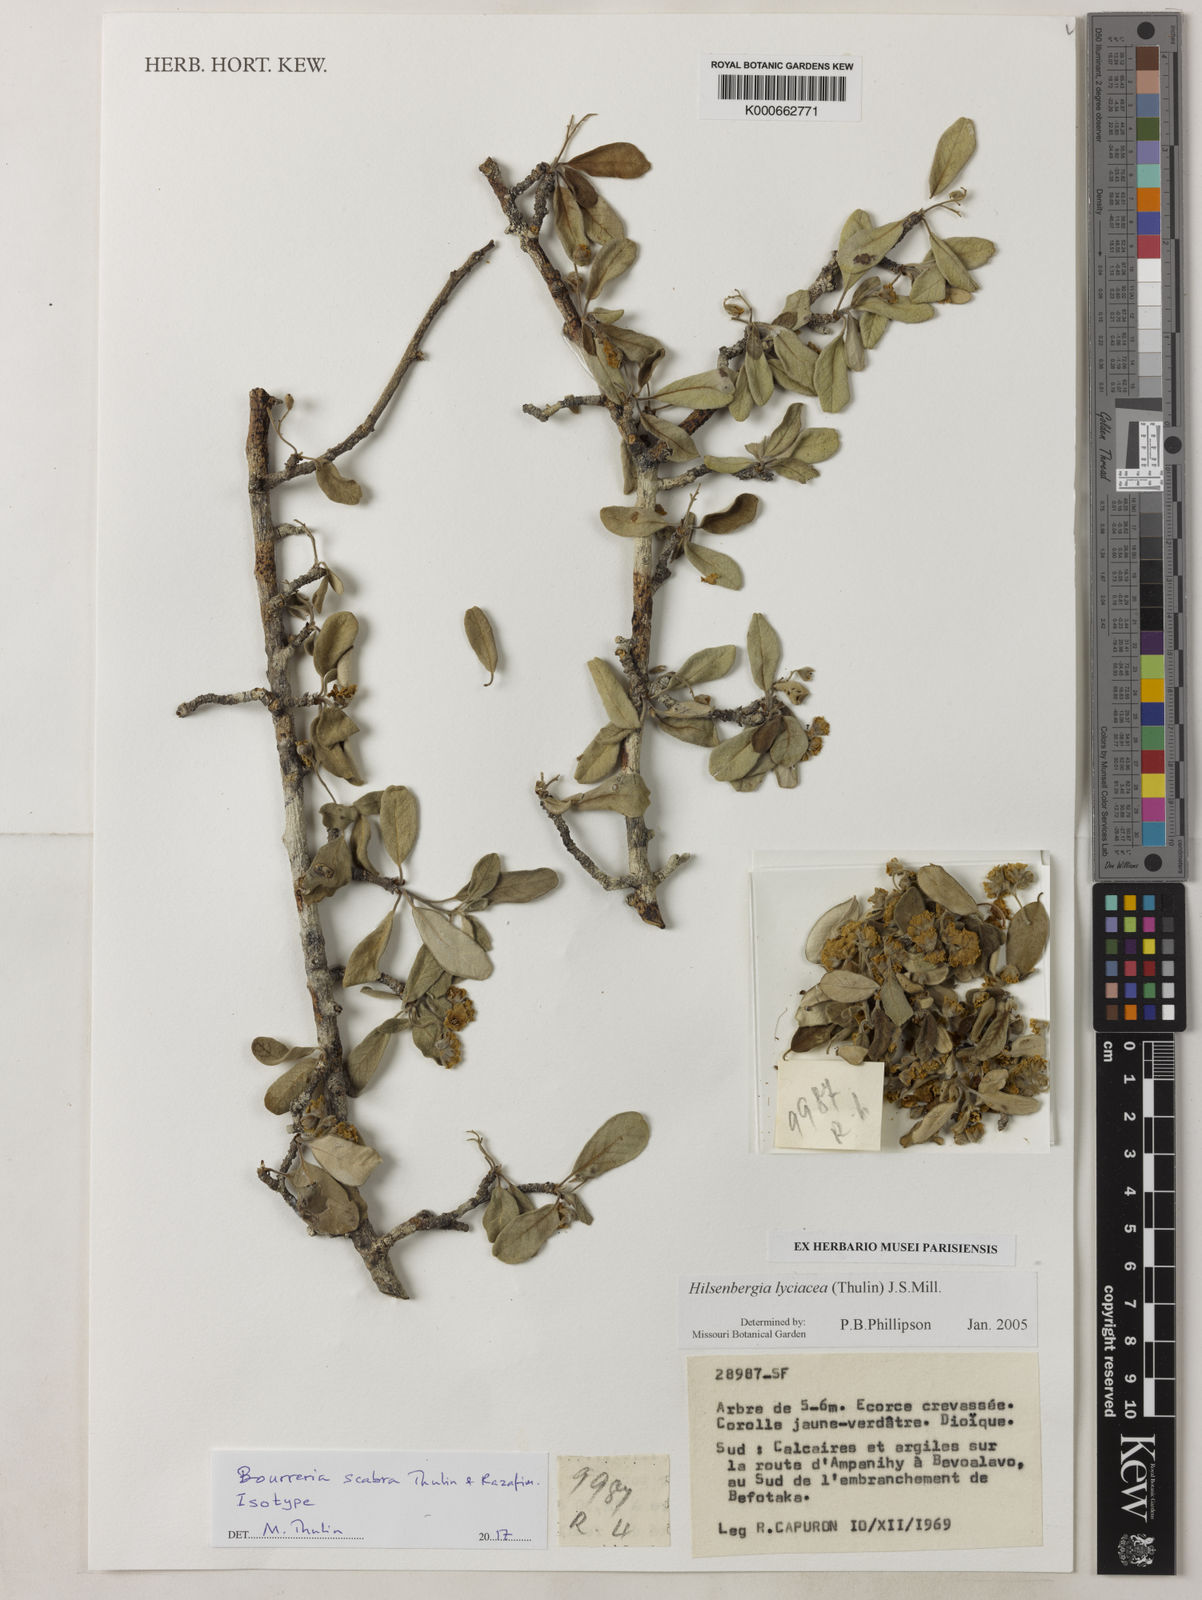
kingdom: Plantae
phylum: Tracheophyta
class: Magnoliopsida
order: Boraginales
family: Ehretiaceae
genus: Bourreria
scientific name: Bourreria scabra
